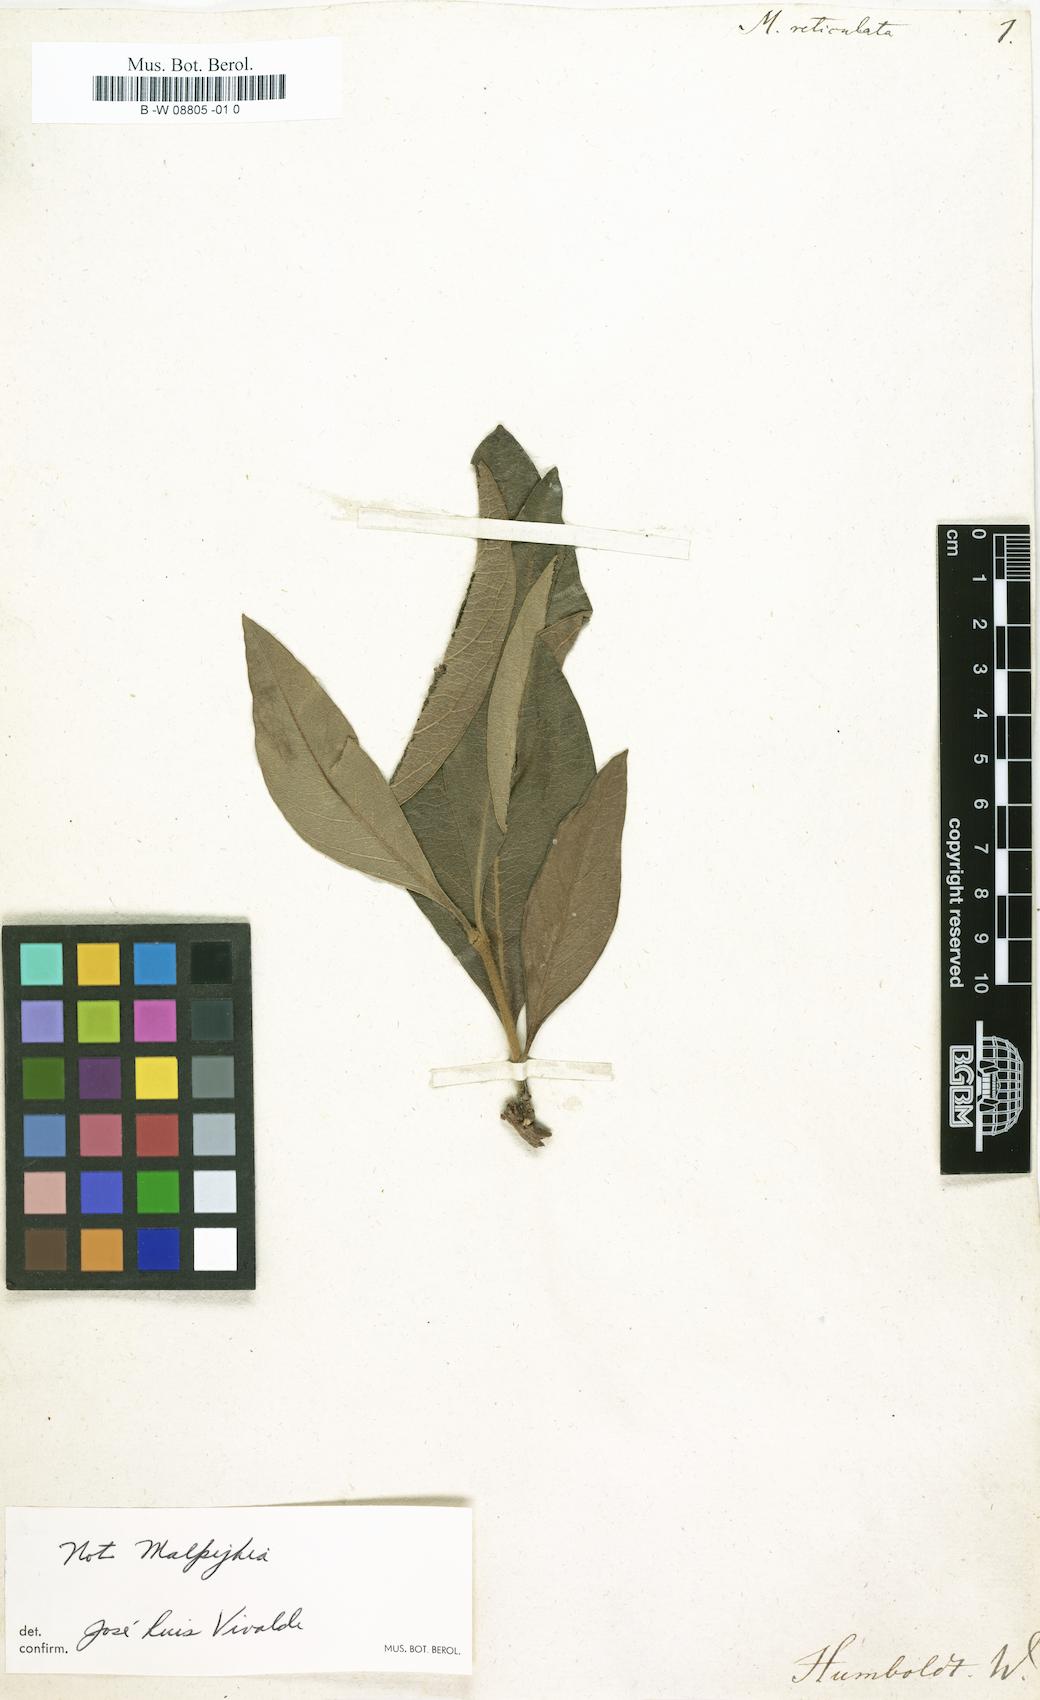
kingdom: Plantae
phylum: Tracheophyta
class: Magnoliopsida
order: Malpighiales
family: Malpighiaceae
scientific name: Malpighiaceae
